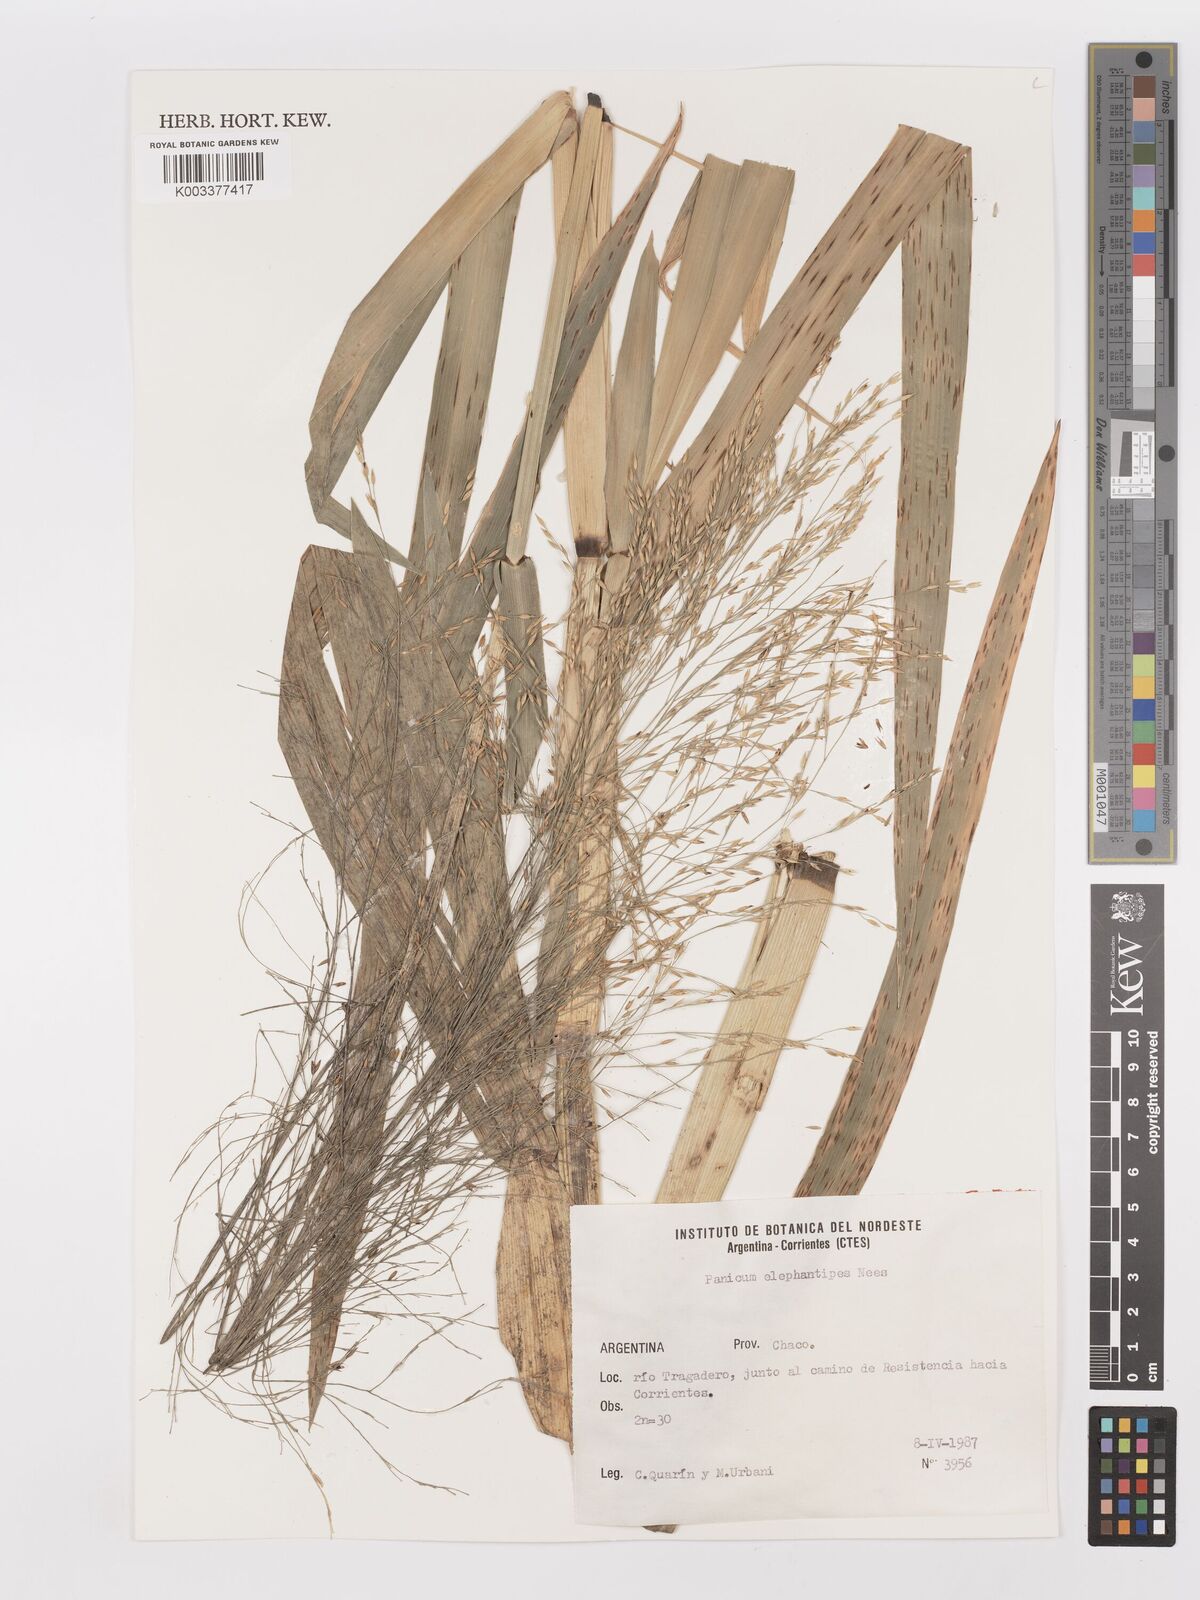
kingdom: Plantae
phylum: Tracheophyta
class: Liliopsida
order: Poales
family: Poaceae
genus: Louisiella
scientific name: Louisiella elephantipes
